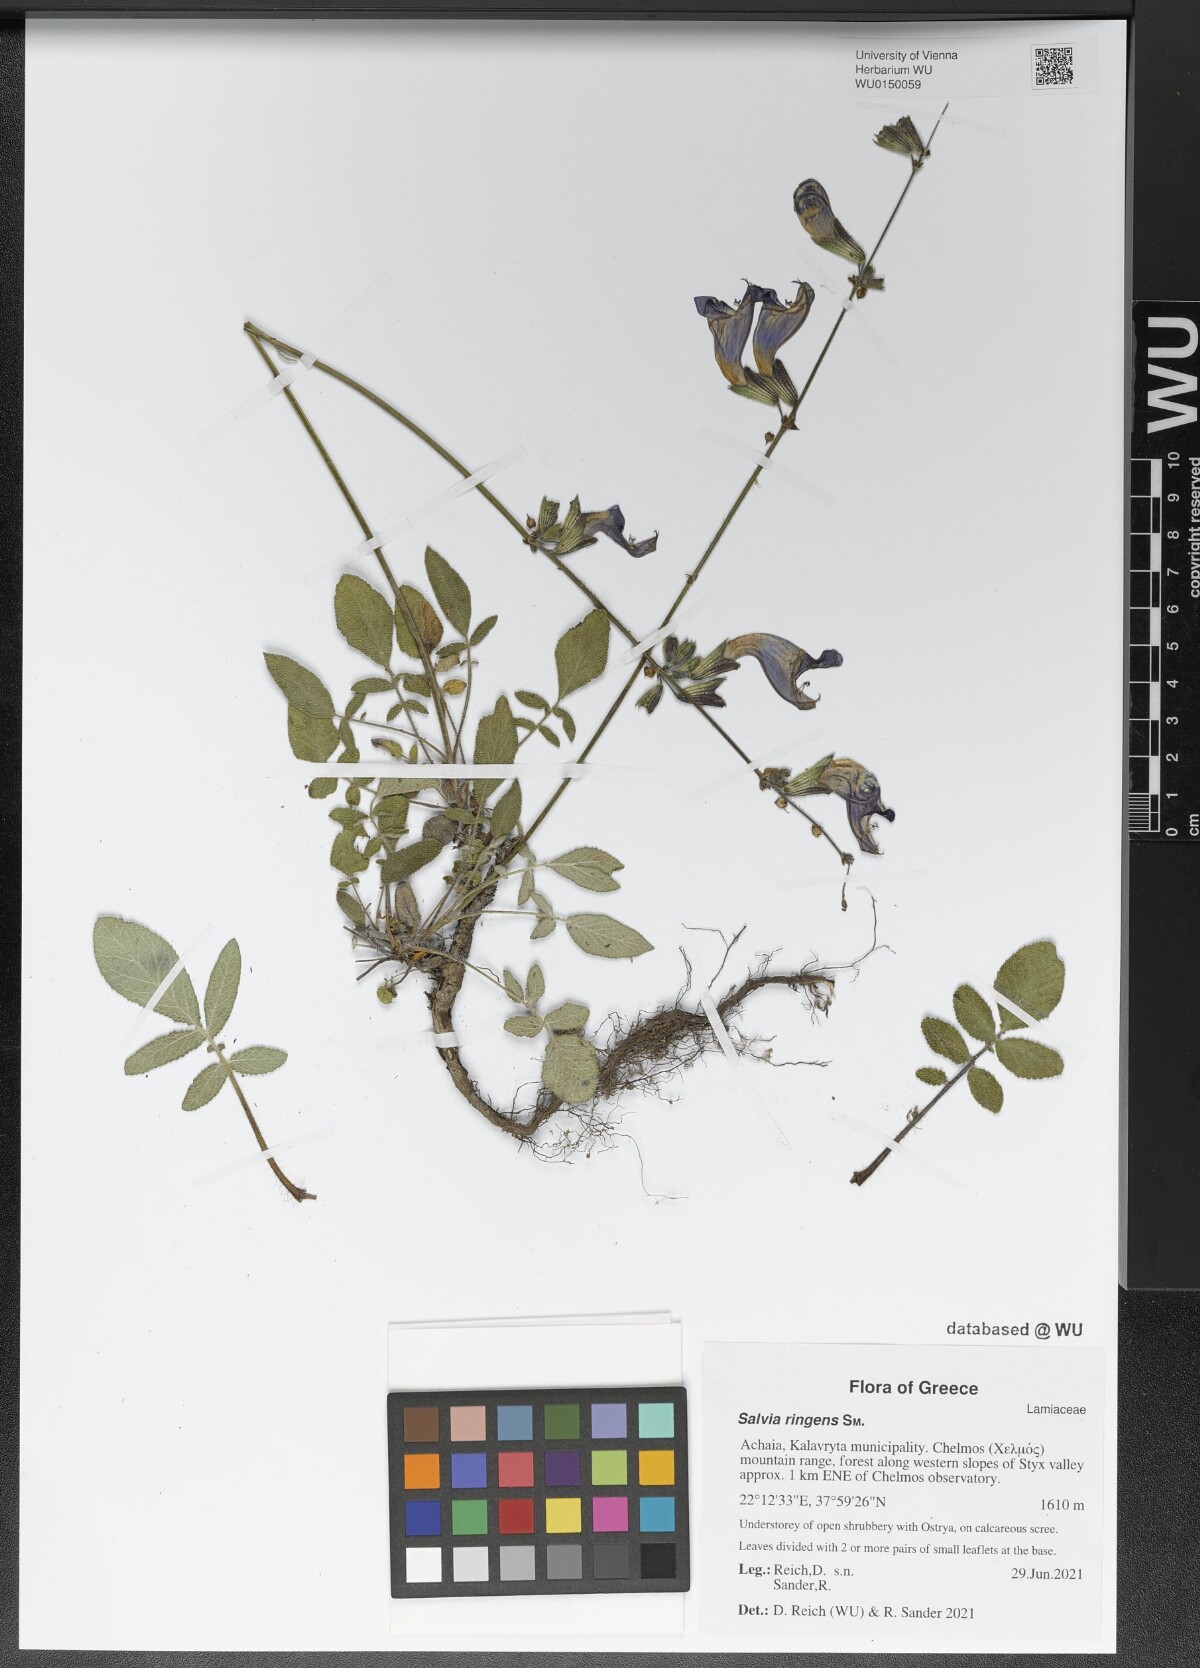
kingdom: Plantae
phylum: Tracheophyta
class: Magnoliopsida
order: Lamiales
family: Lamiaceae
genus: Salvia
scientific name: Salvia ringens
